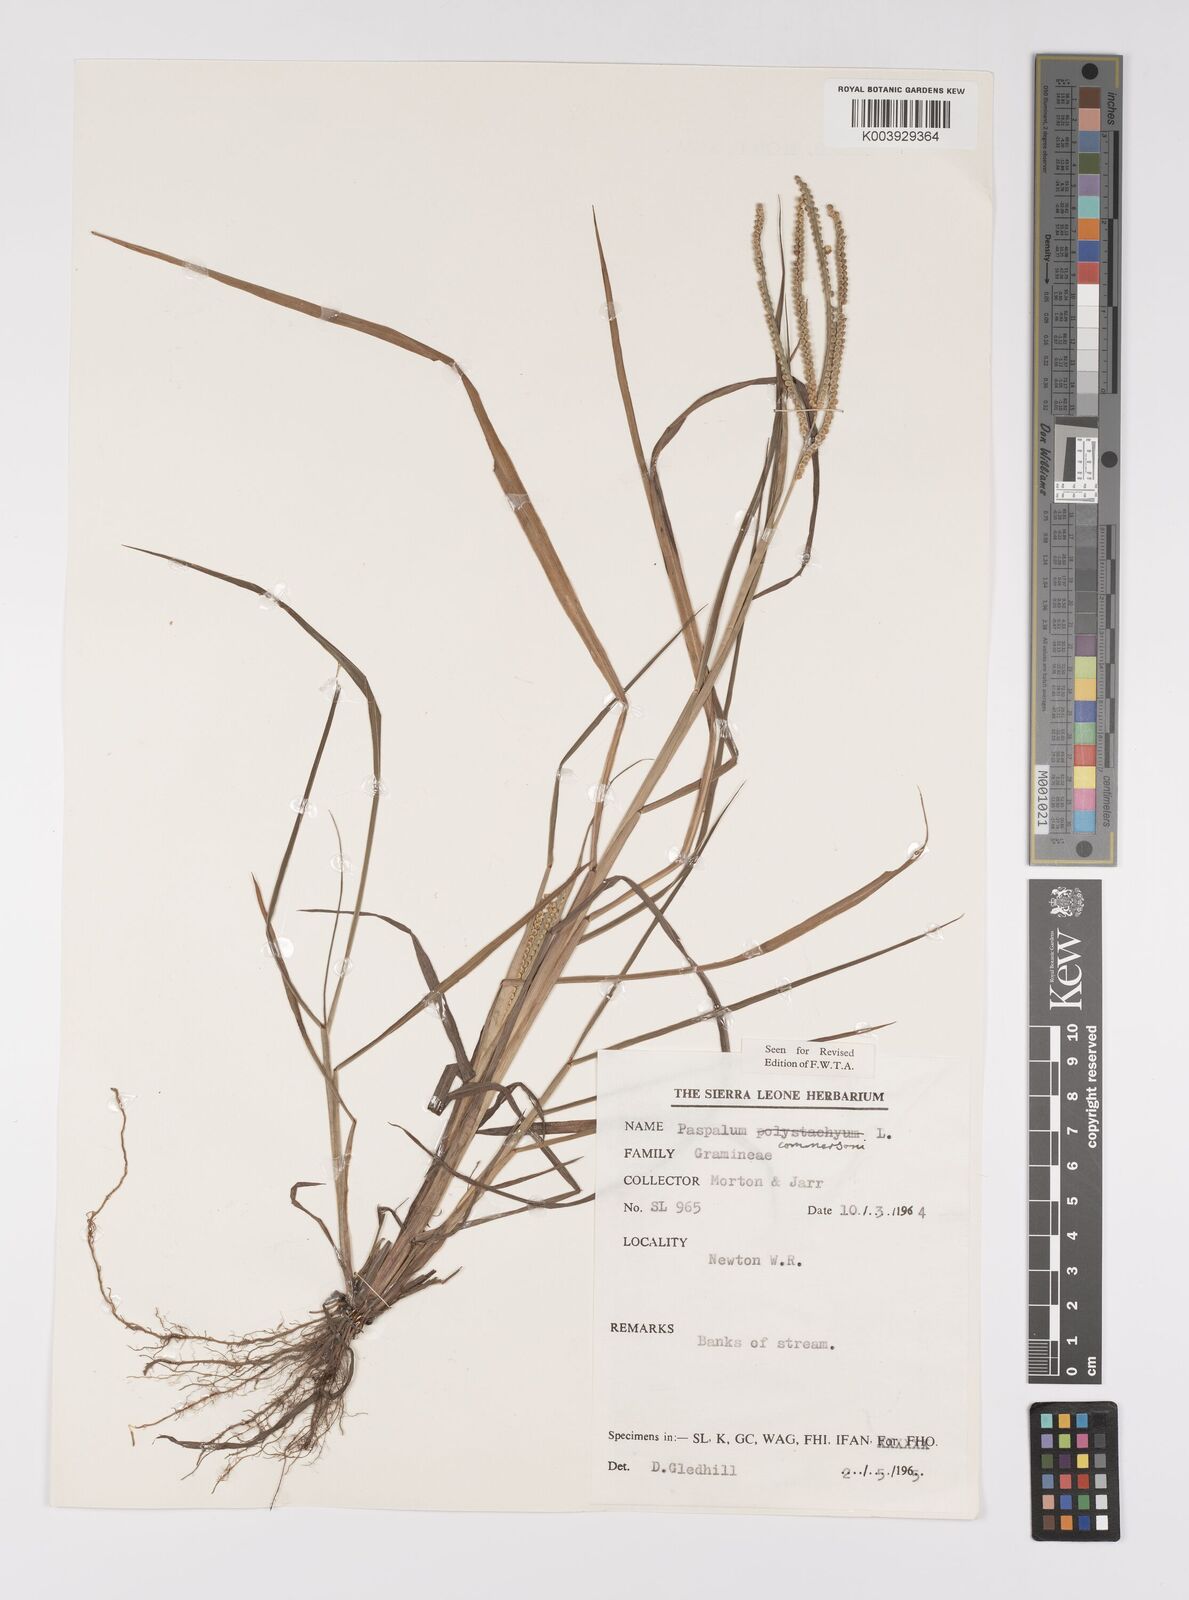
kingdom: Plantae
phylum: Tracheophyta
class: Liliopsida
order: Poales
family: Poaceae
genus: Paspalum
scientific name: Paspalum scrobiculatum
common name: Kodo millet
